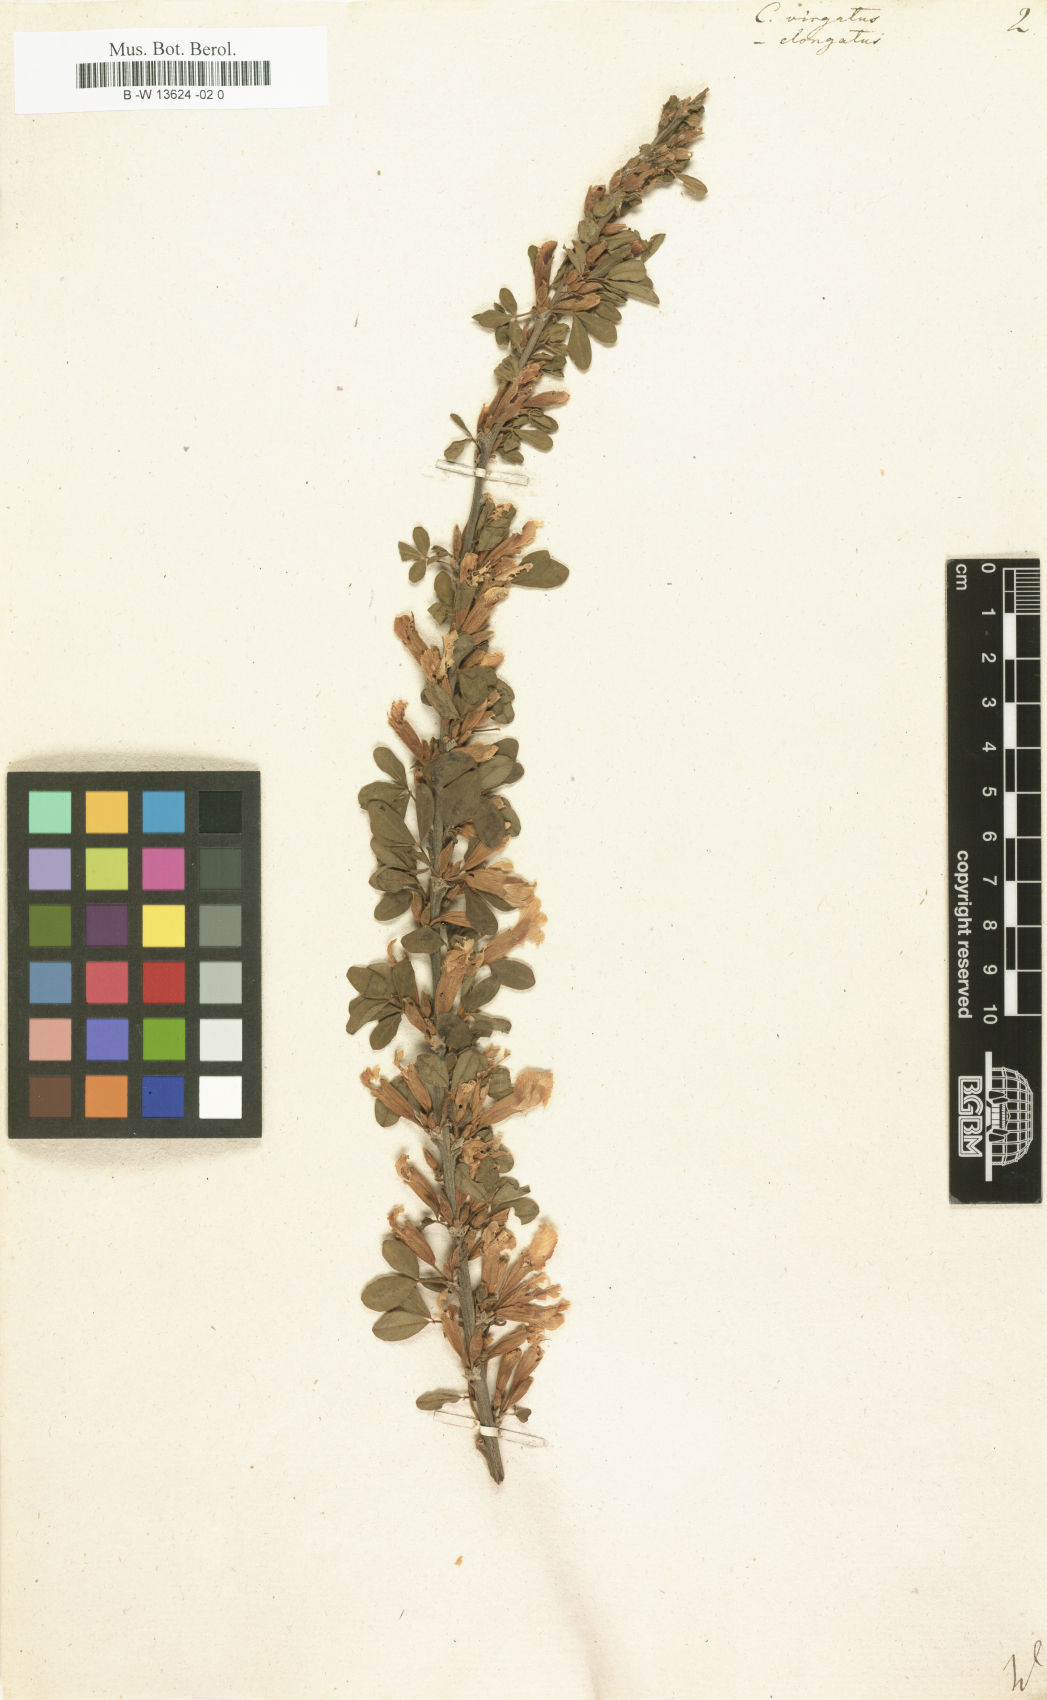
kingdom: Plantae
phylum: Tracheophyta
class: Magnoliopsida
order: Fabales
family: Fabaceae
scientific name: Fabaceae
